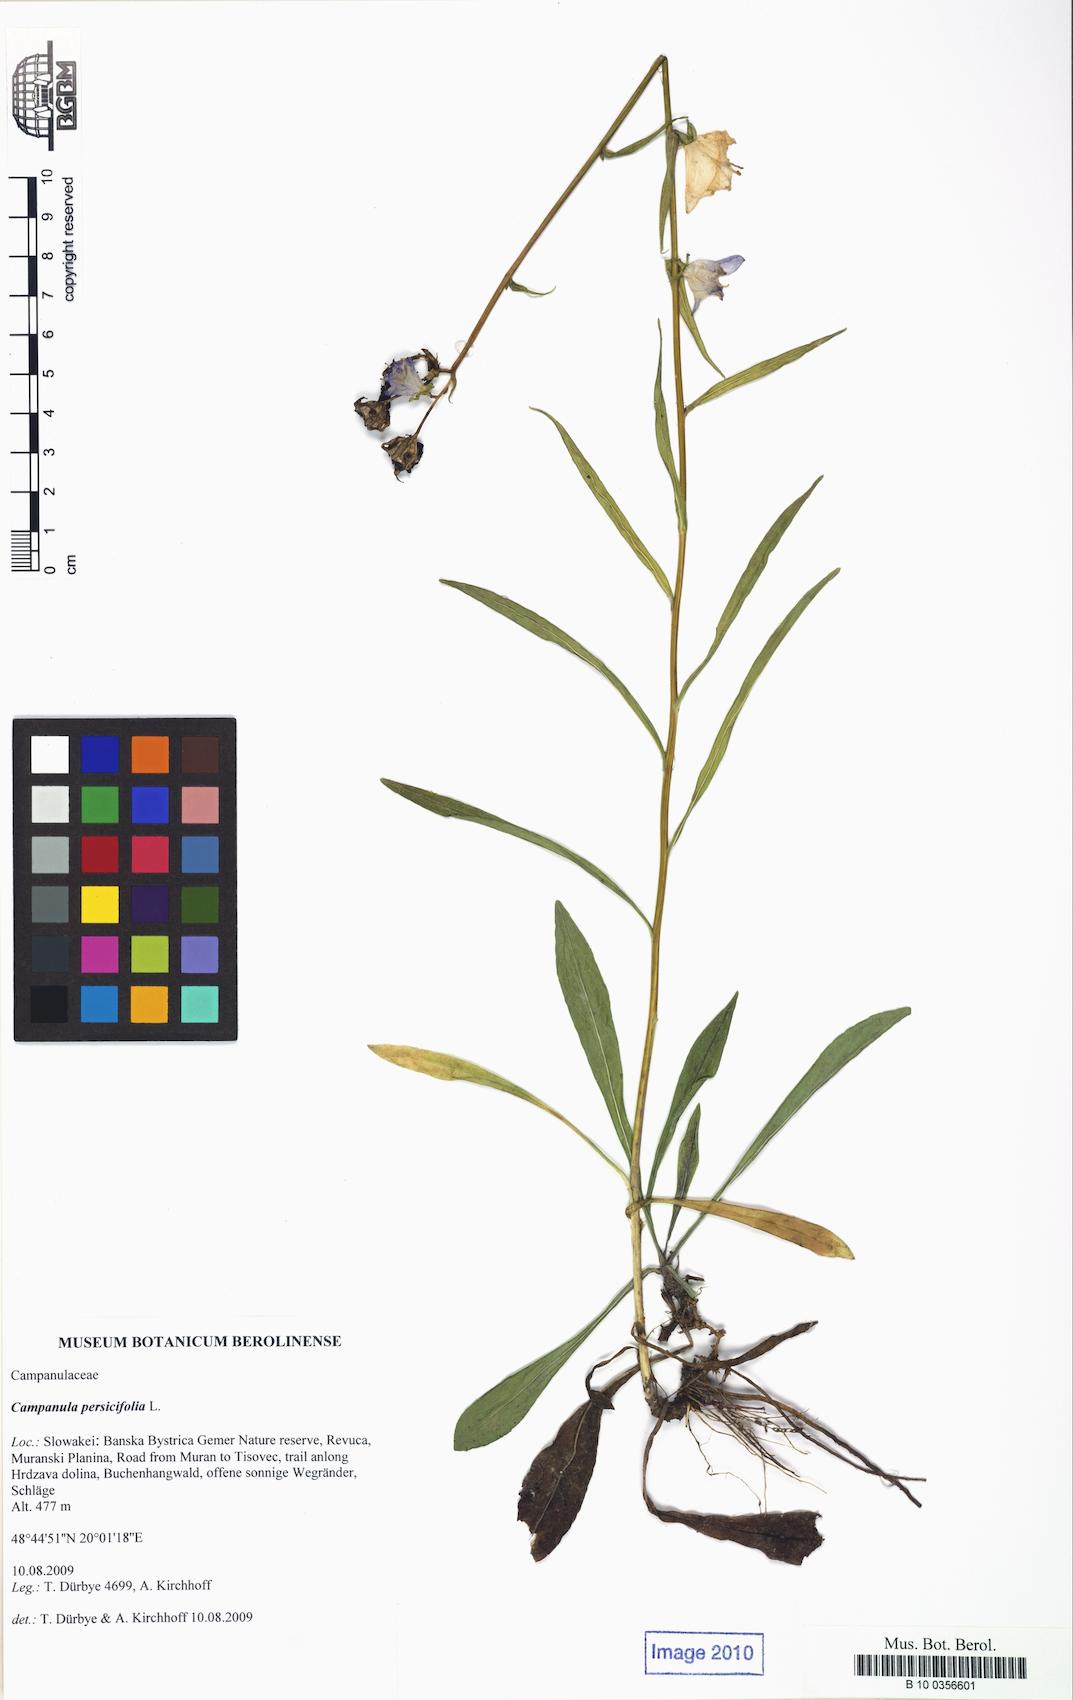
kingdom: Plantae
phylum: Tracheophyta
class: Magnoliopsida
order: Asterales
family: Campanulaceae
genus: Campanula
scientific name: Campanula persicifolia
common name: Peach-leaved bellflower
